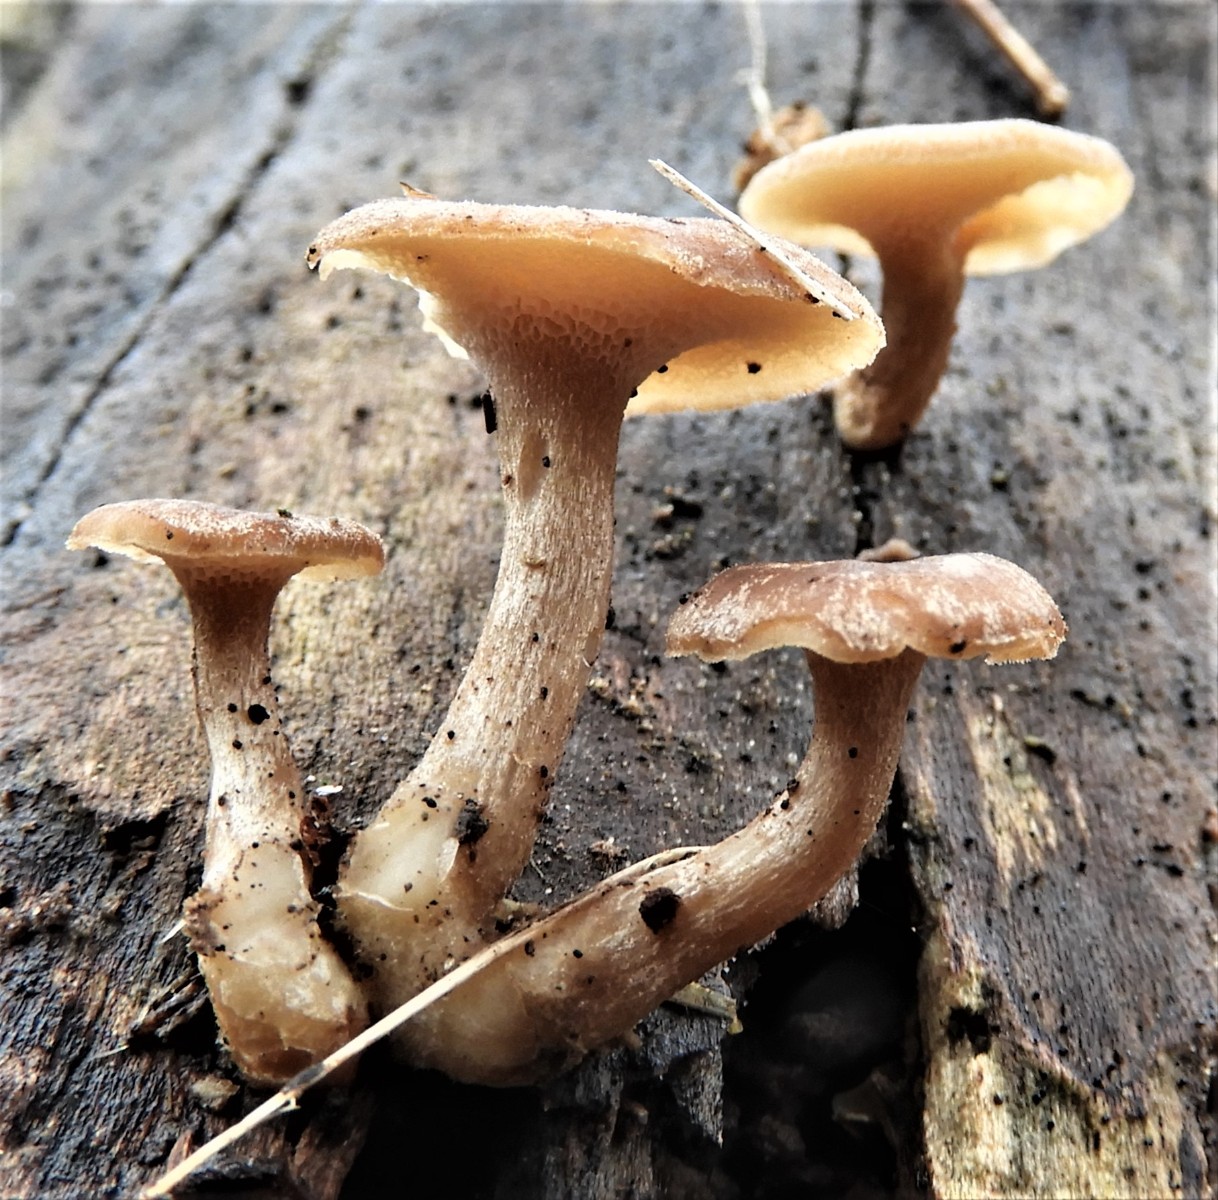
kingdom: Fungi
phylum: Basidiomycota
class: Agaricomycetes
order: Polyporales
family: Polyporaceae
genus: Lentinus
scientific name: Lentinus brumalis
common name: vinter-stilkporesvamp
